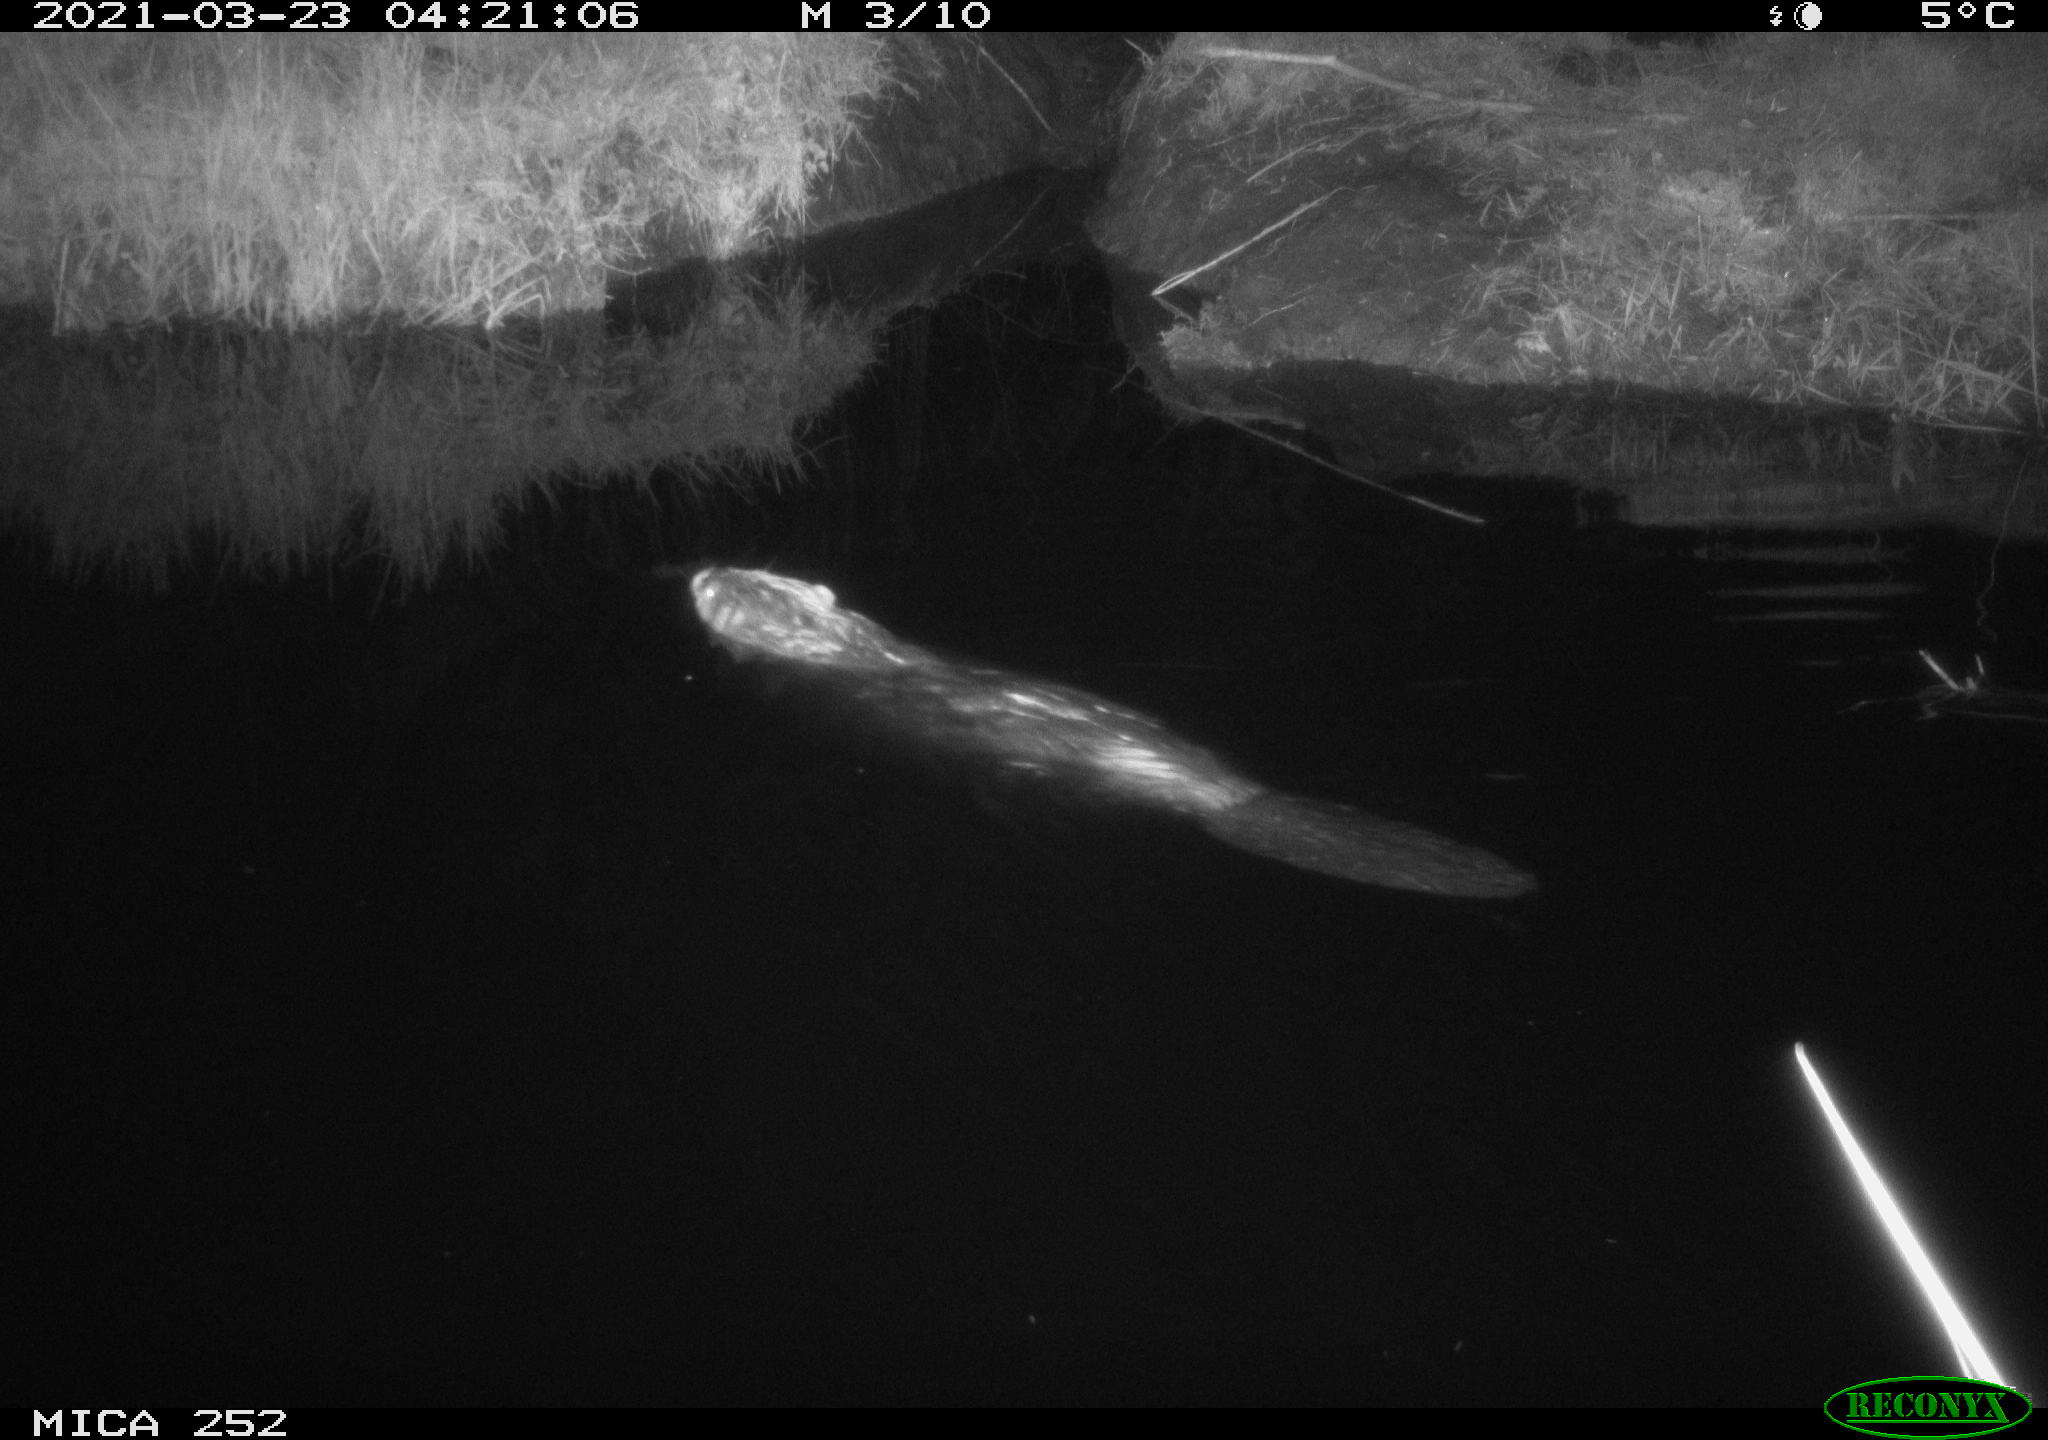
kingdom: Animalia
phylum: Chordata
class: Mammalia
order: Rodentia
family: Castoridae
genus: Castor
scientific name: Castor fiber
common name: Eurasian beaver
